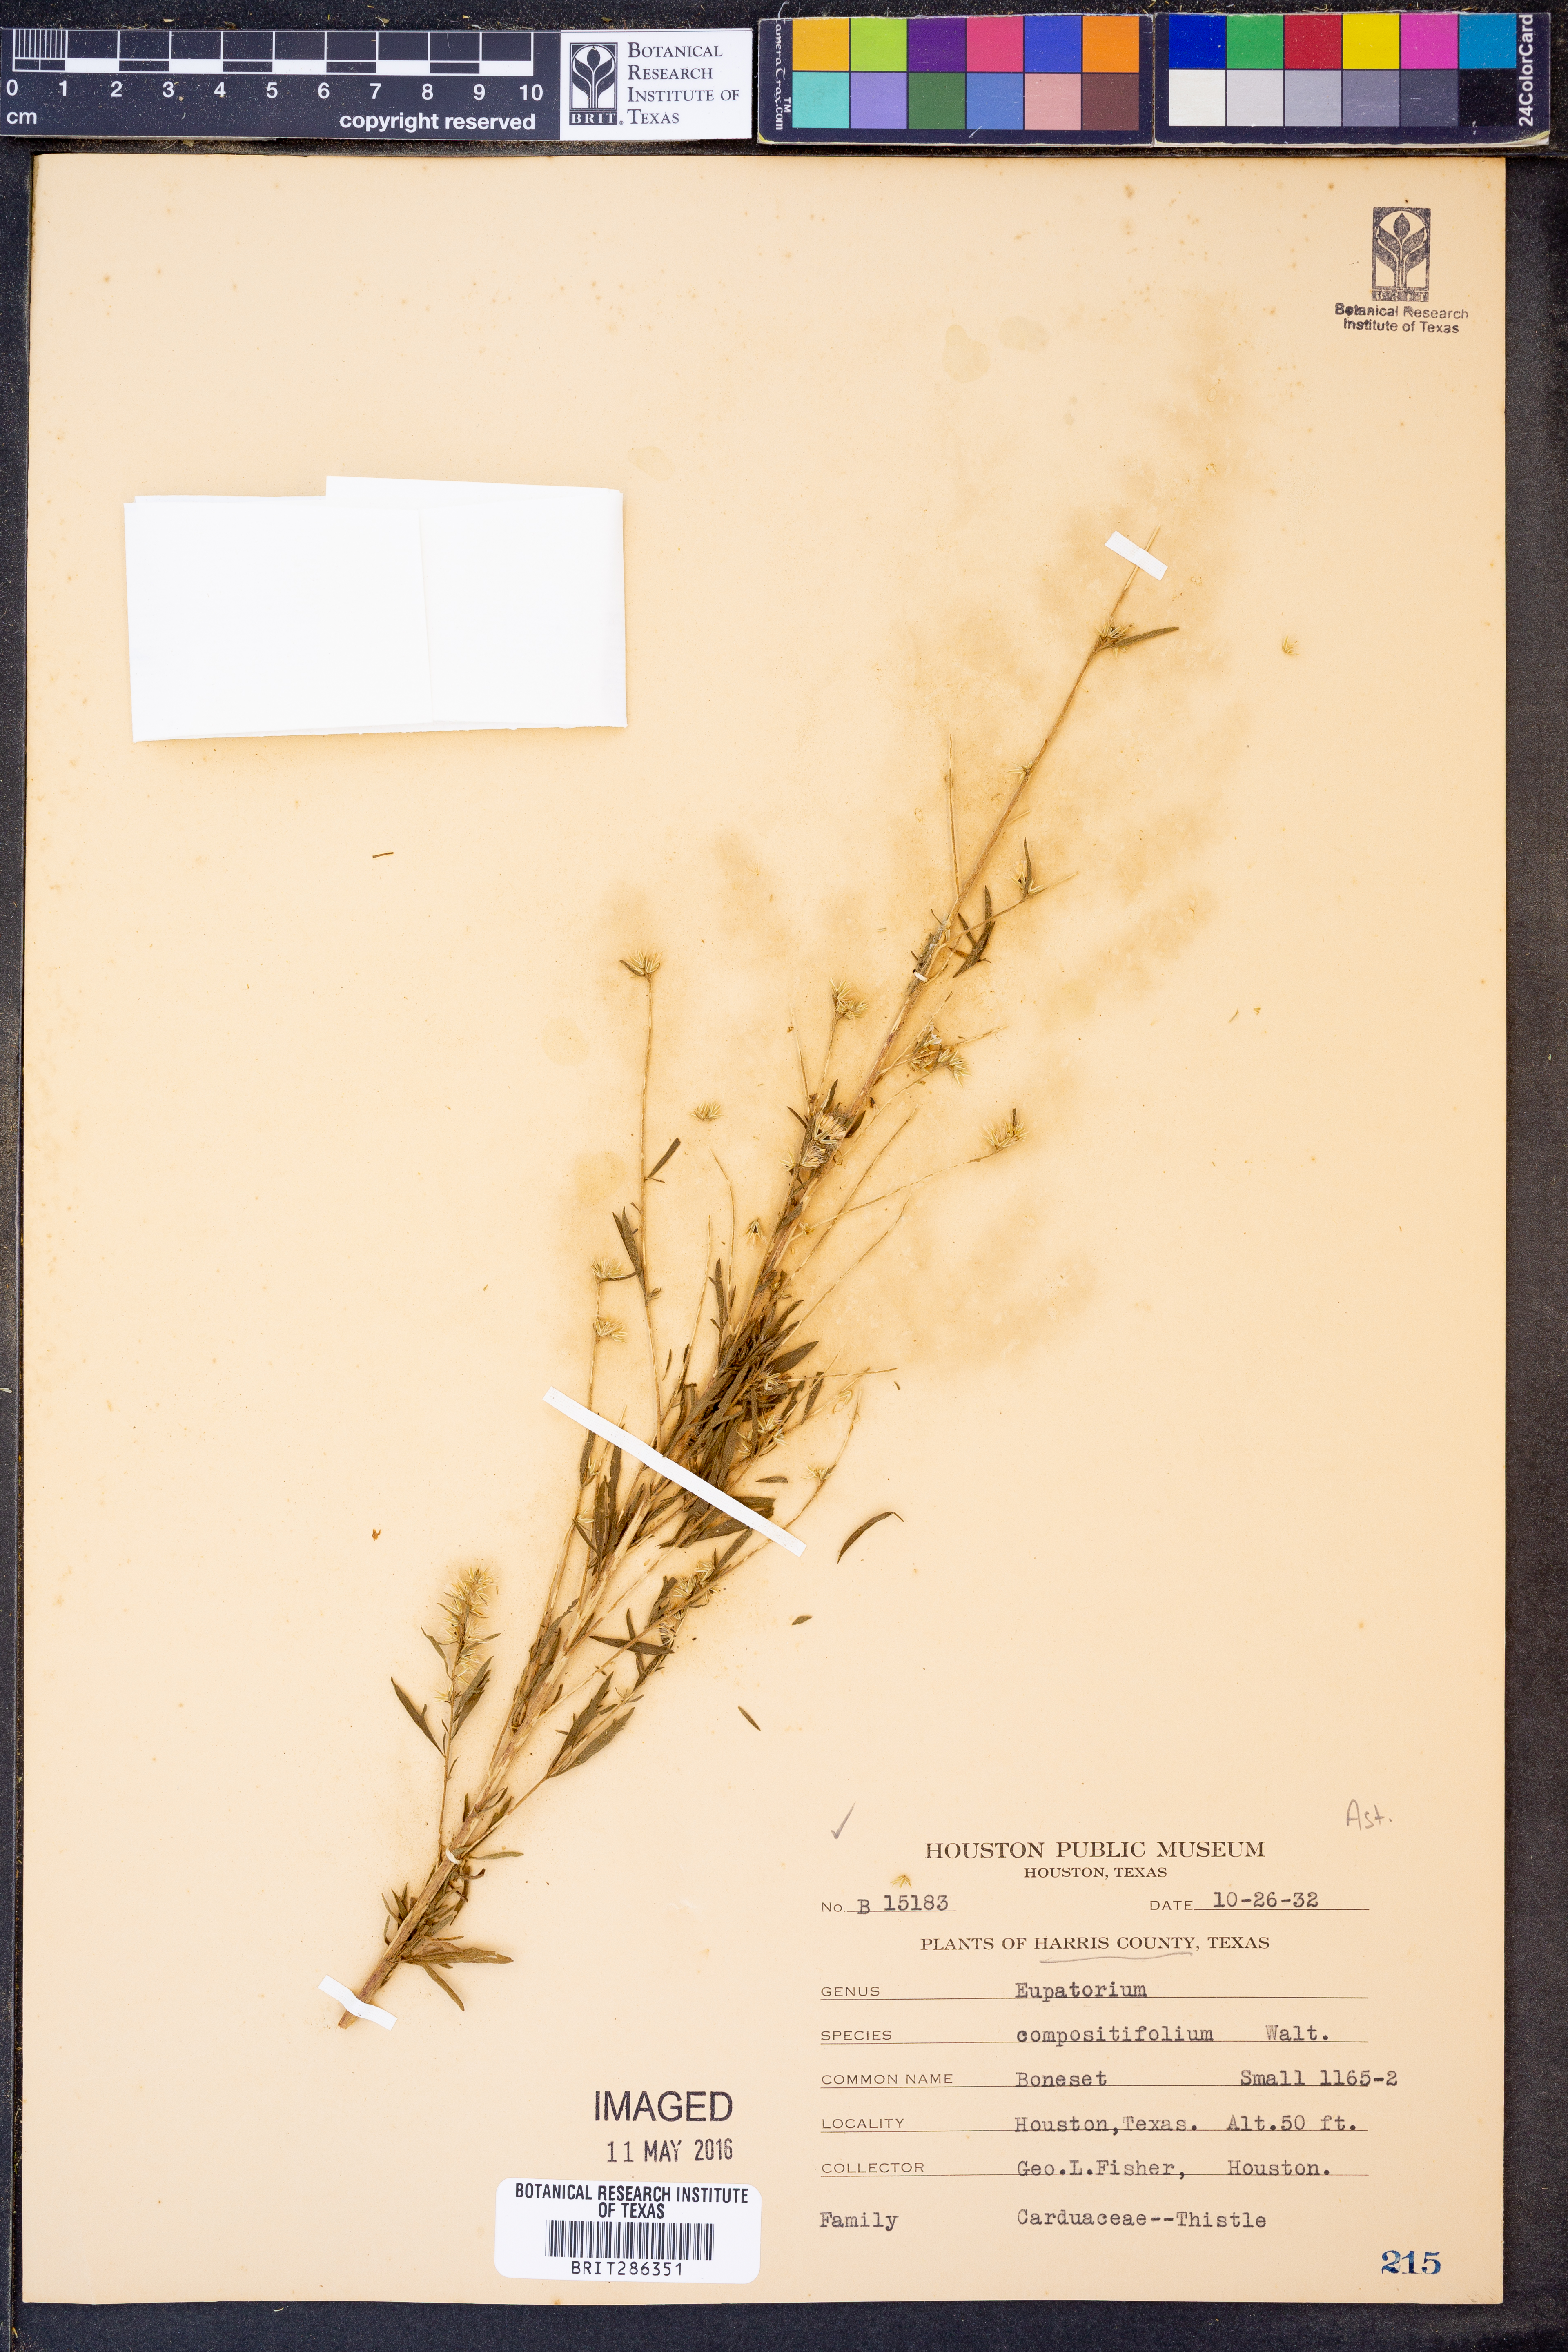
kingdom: Plantae
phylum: Tracheophyta
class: Magnoliopsida
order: Asterales
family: Asteraceae
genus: Eupatorium
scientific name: Eupatorium compositifolium
